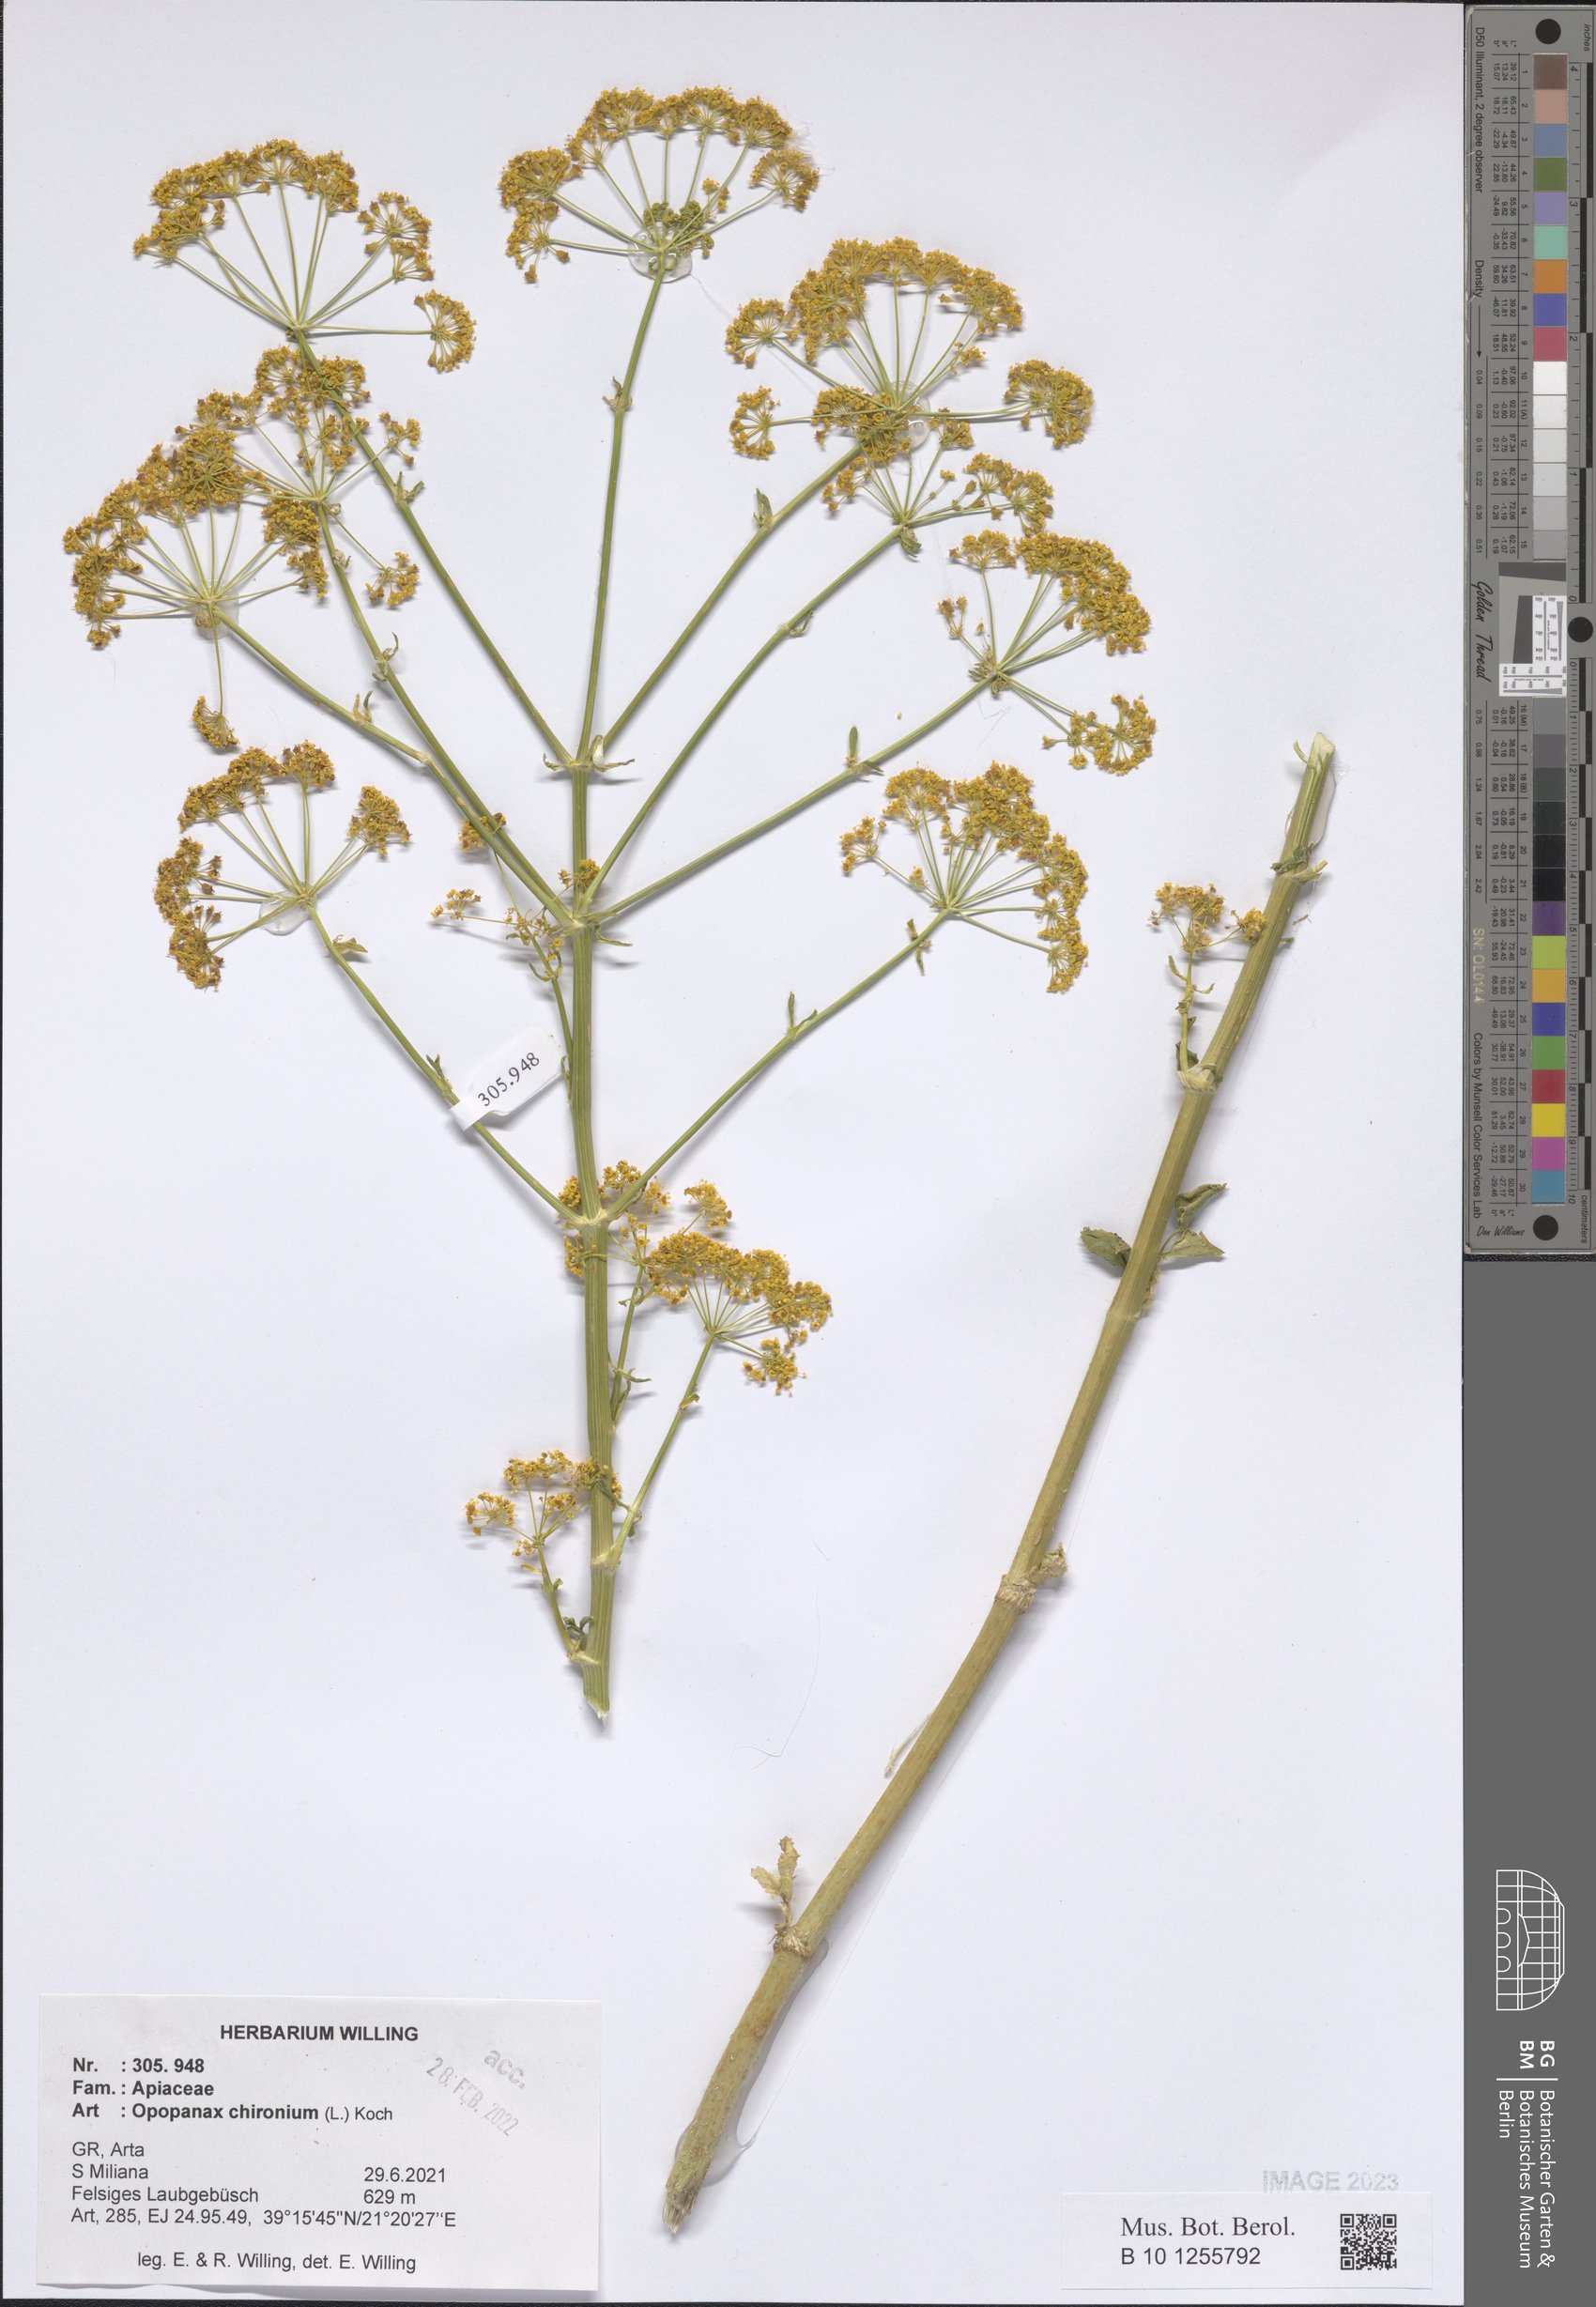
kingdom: Plantae
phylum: Tracheophyta
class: Magnoliopsida
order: Apiales
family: Apiaceae
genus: Opopanax
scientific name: Opopanax chironium
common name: Hercules-all-heal
